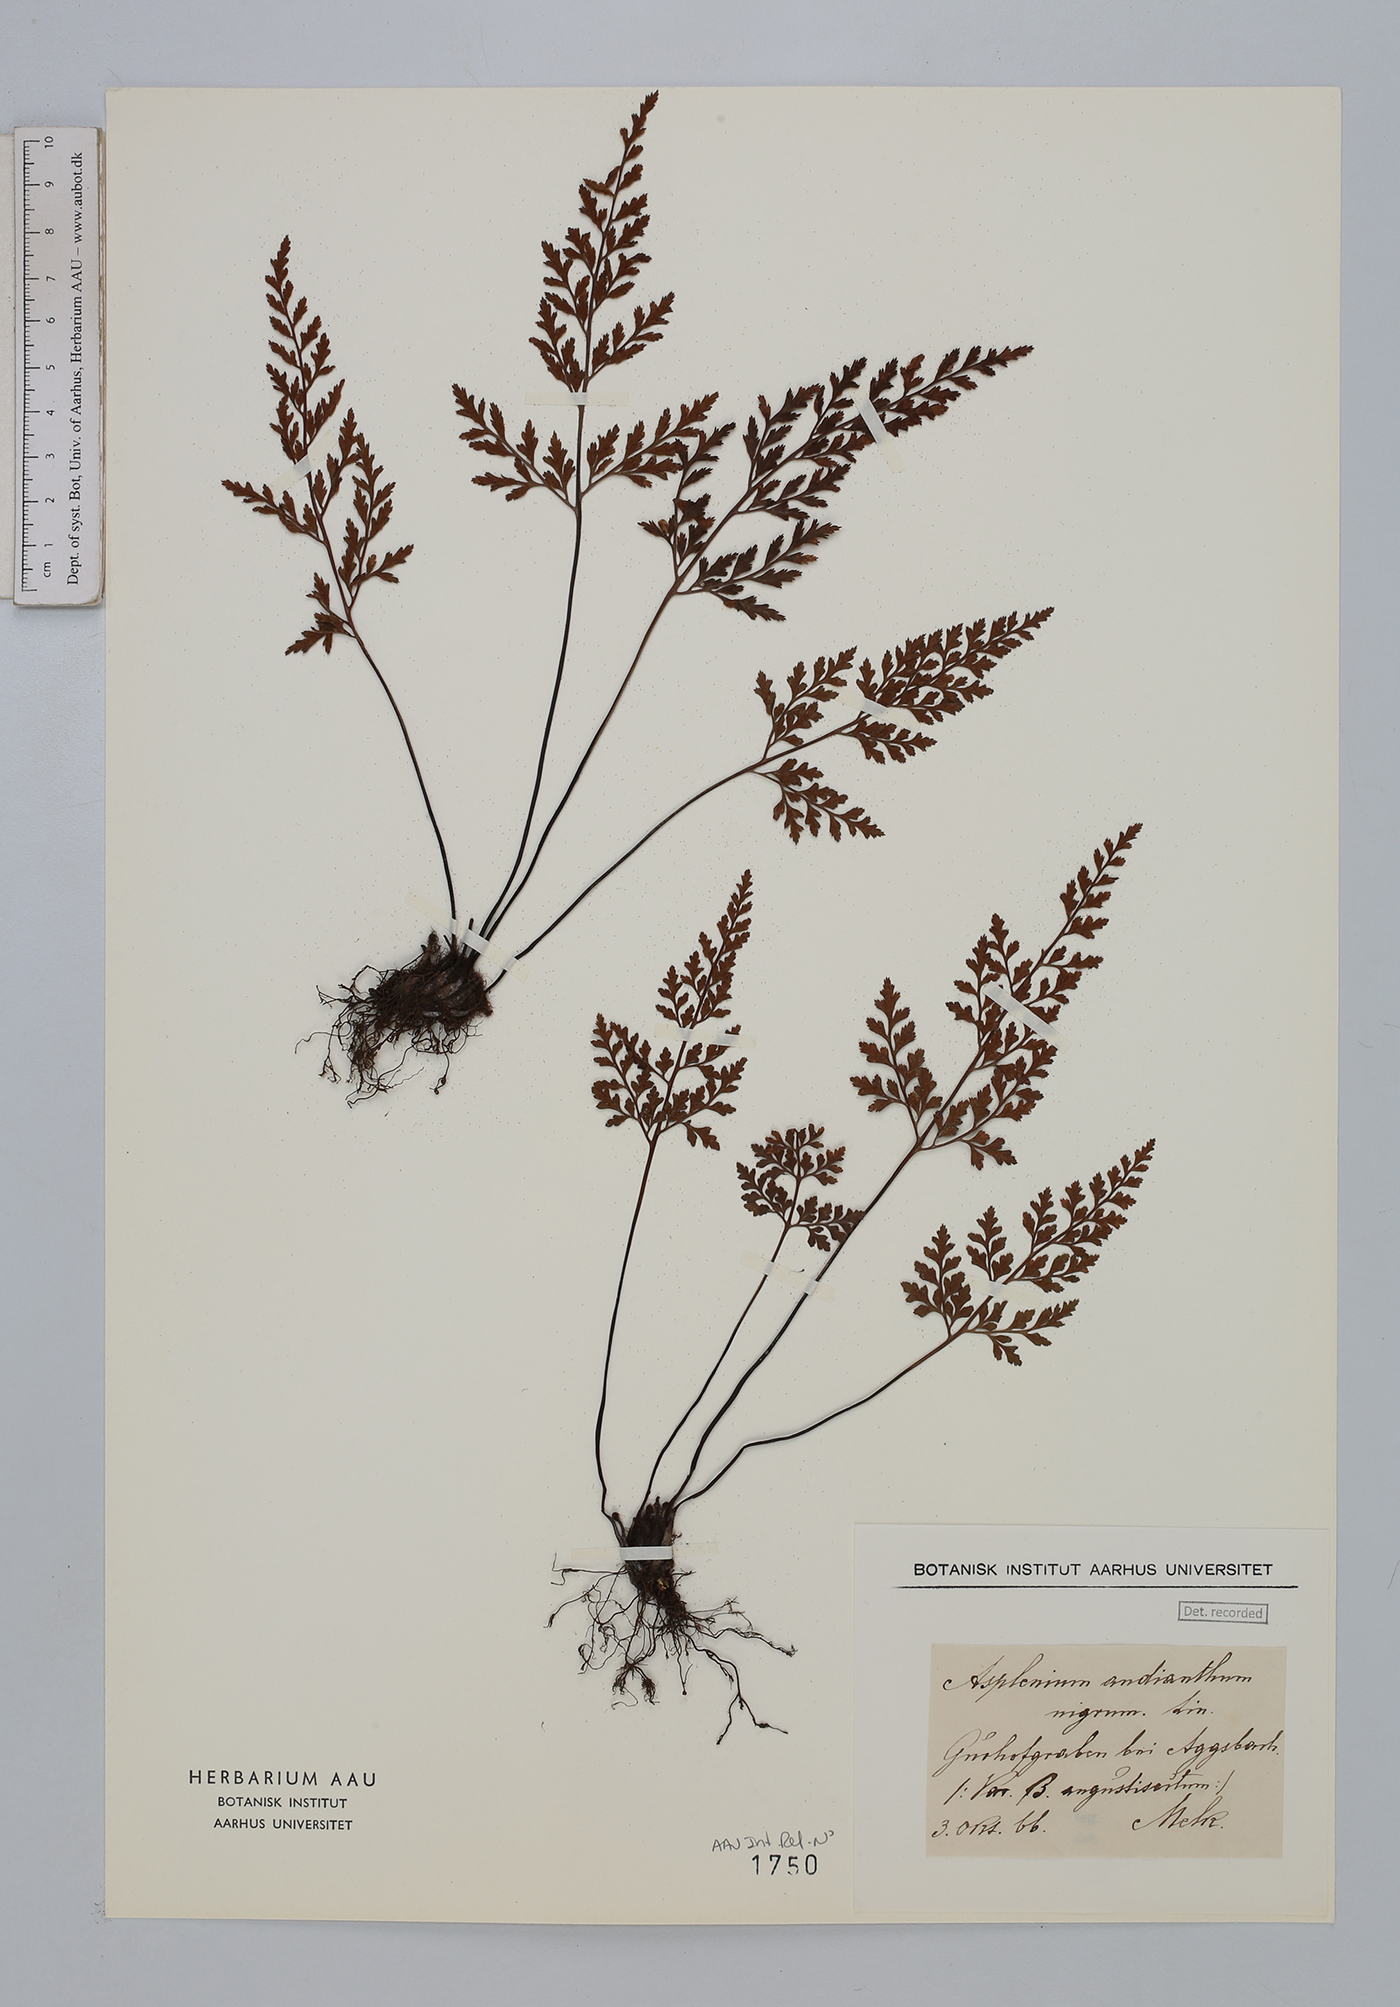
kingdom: Plantae
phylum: Tracheophyta
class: Polypodiopsida
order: Polypodiales
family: Aspleniaceae
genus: Asplenium
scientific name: Asplenium cuneifolium
